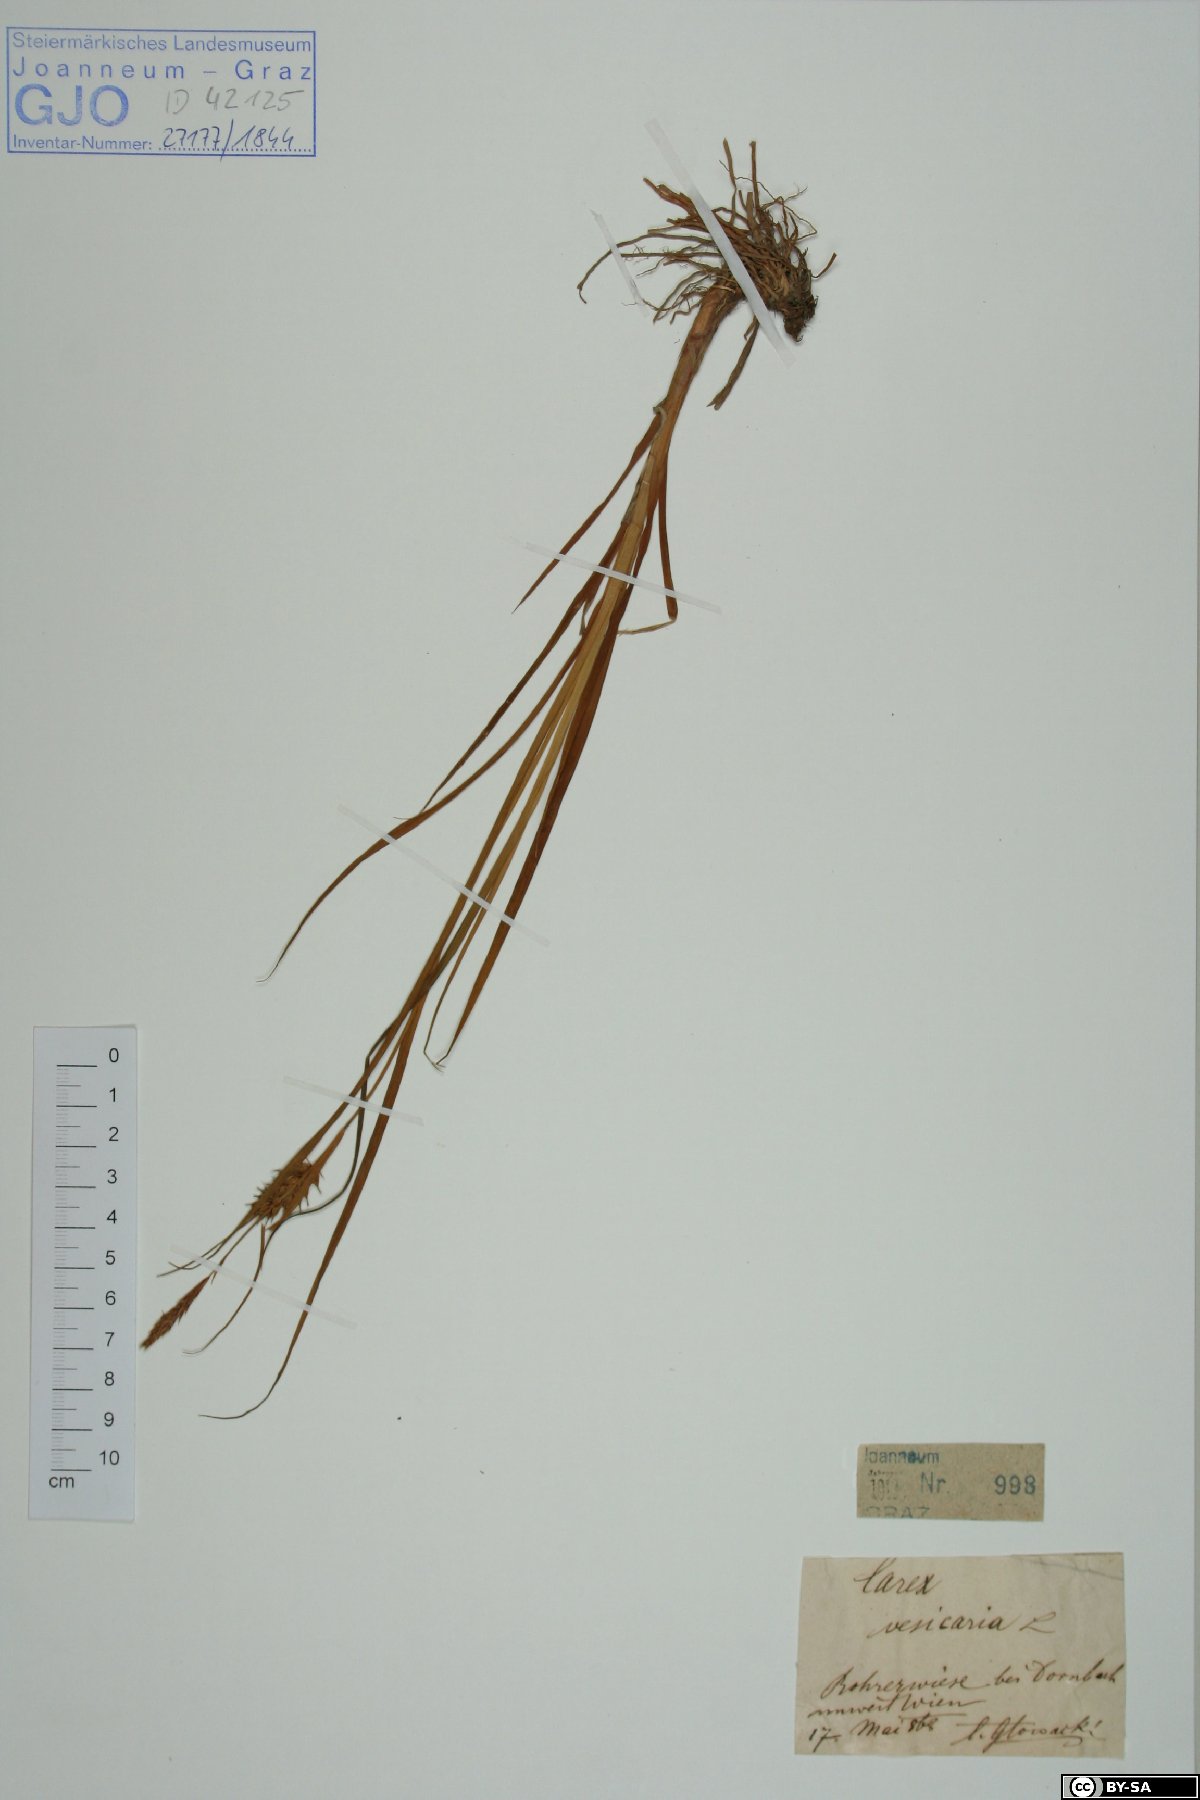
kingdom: Plantae
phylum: Tracheophyta
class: Liliopsida
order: Poales
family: Cyperaceae
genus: Carex
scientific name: Carex vesicaria
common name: Bladder-sedge
